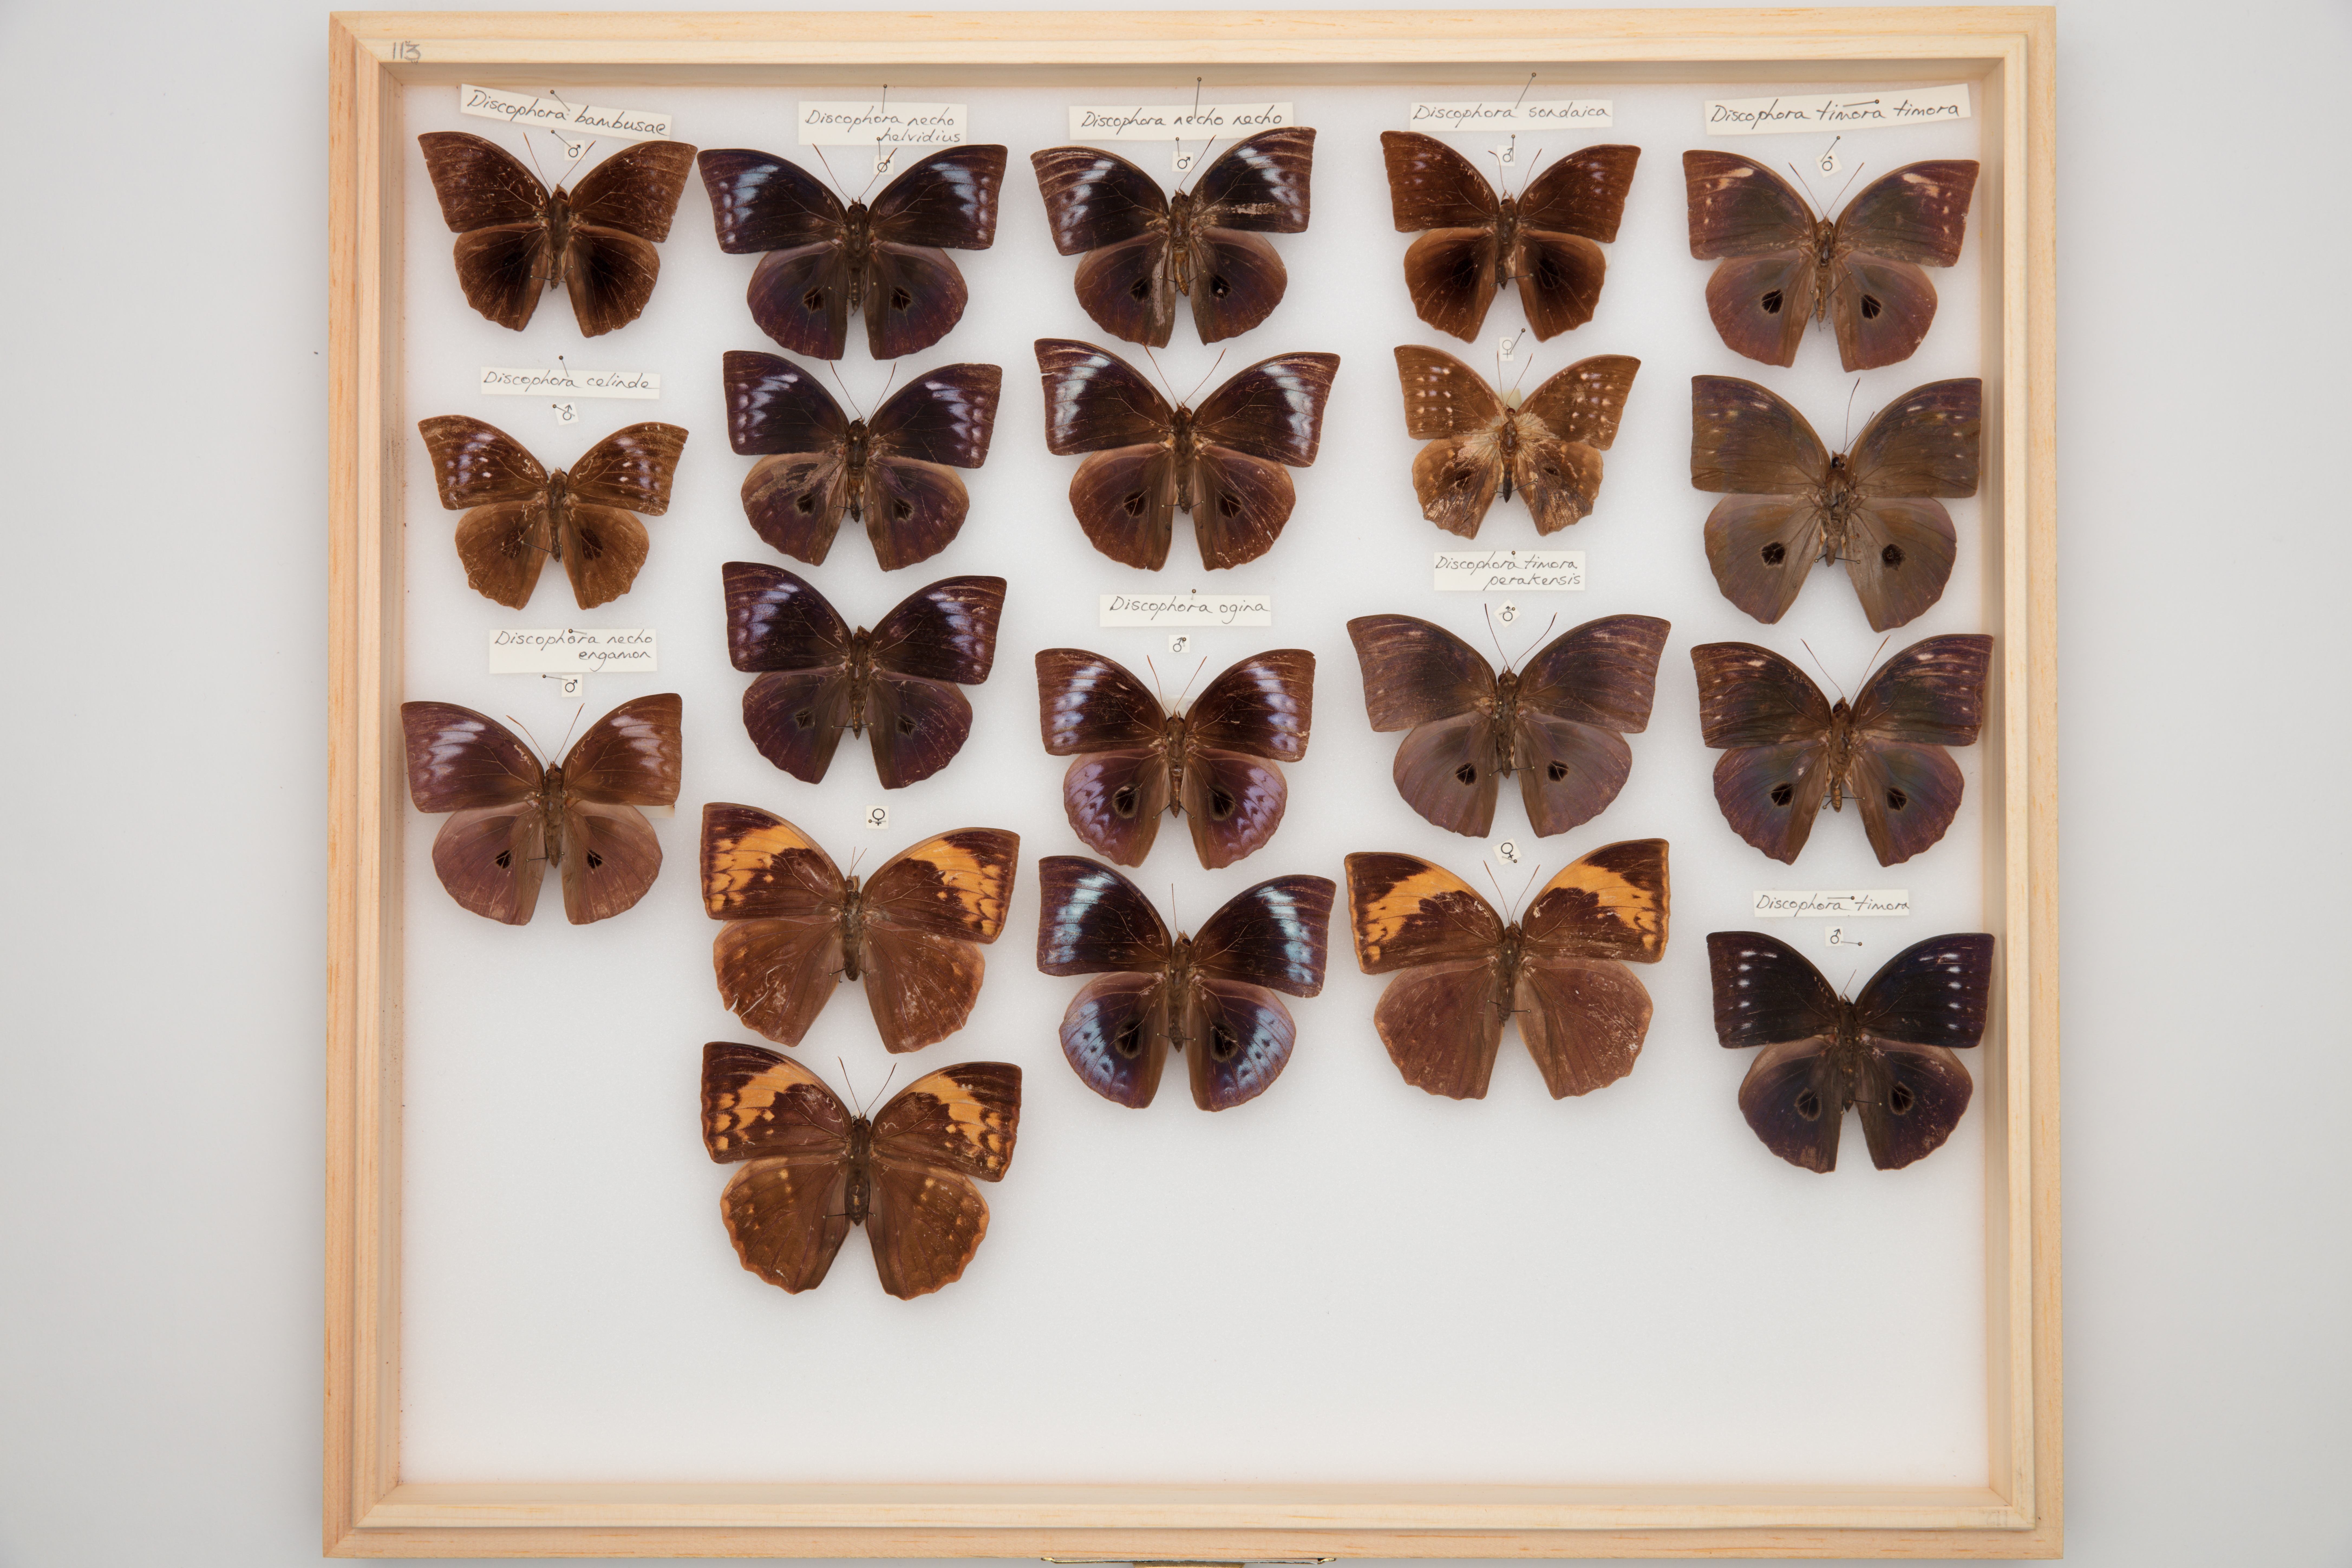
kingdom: Animalia
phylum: Arthropoda
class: Insecta
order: Lepidoptera
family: Nymphalidae
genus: Discophora
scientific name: Discophora sondaica
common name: Common duffer
